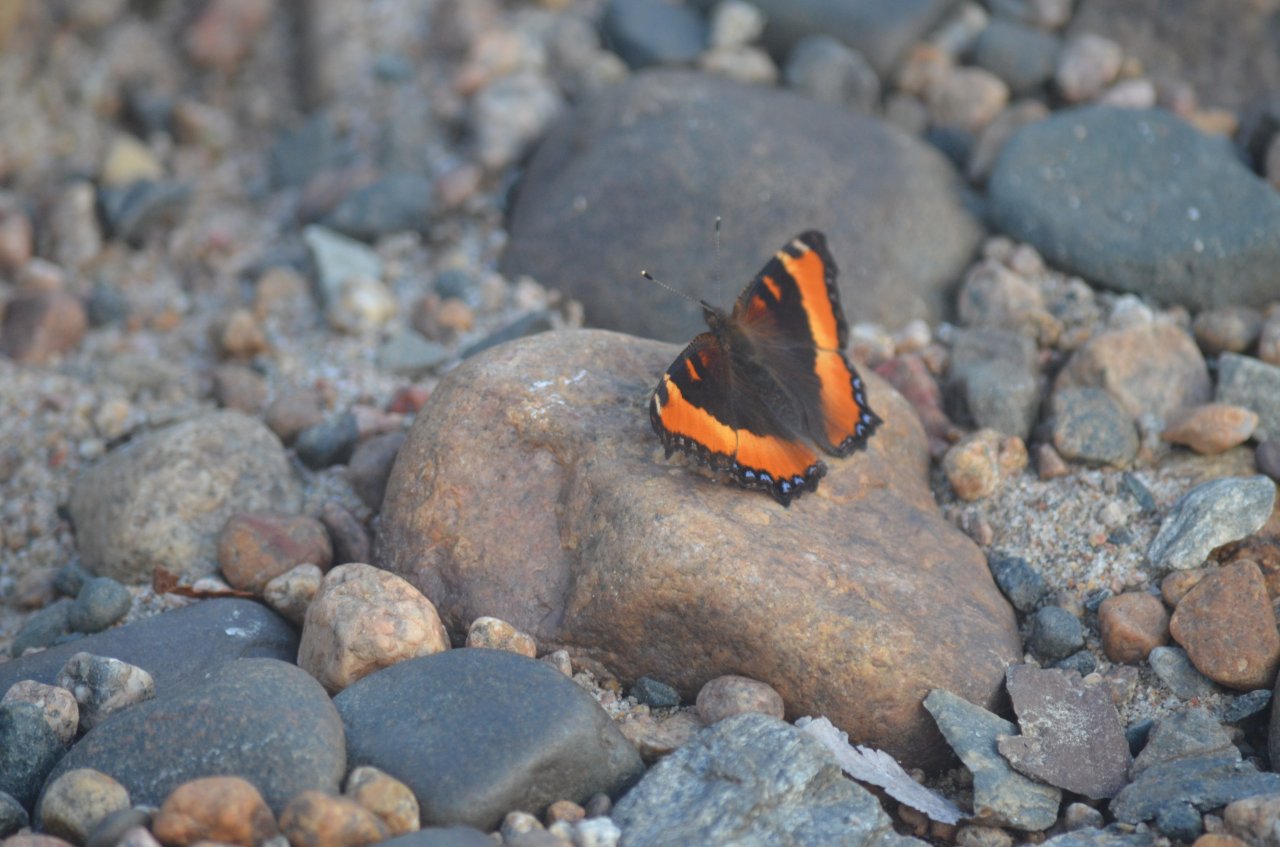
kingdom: Animalia
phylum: Arthropoda
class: Insecta
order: Lepidoptera
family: Nymphalidae
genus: Aglais
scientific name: Aglais milberti
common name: Milbert's Tortoiseshell
